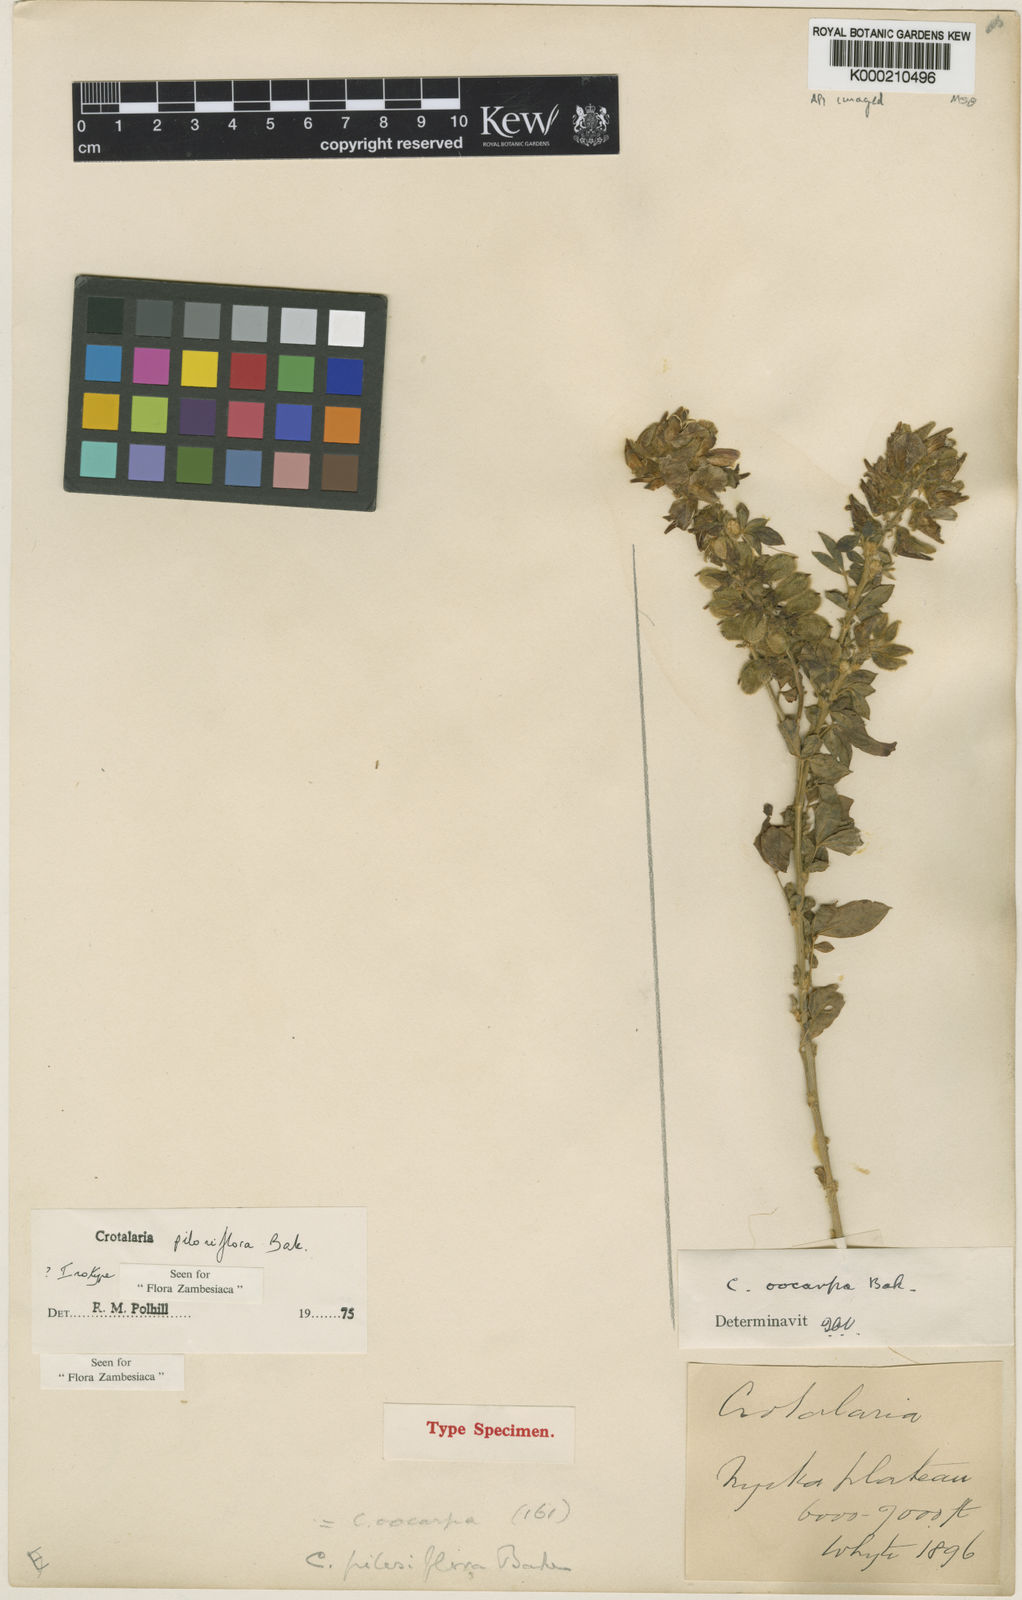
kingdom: Plantae
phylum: Tracheophyta
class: Magnoliopsida
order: Fabales
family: Fabaceae
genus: Crotalaria
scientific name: Crotalaria pilosiflora
